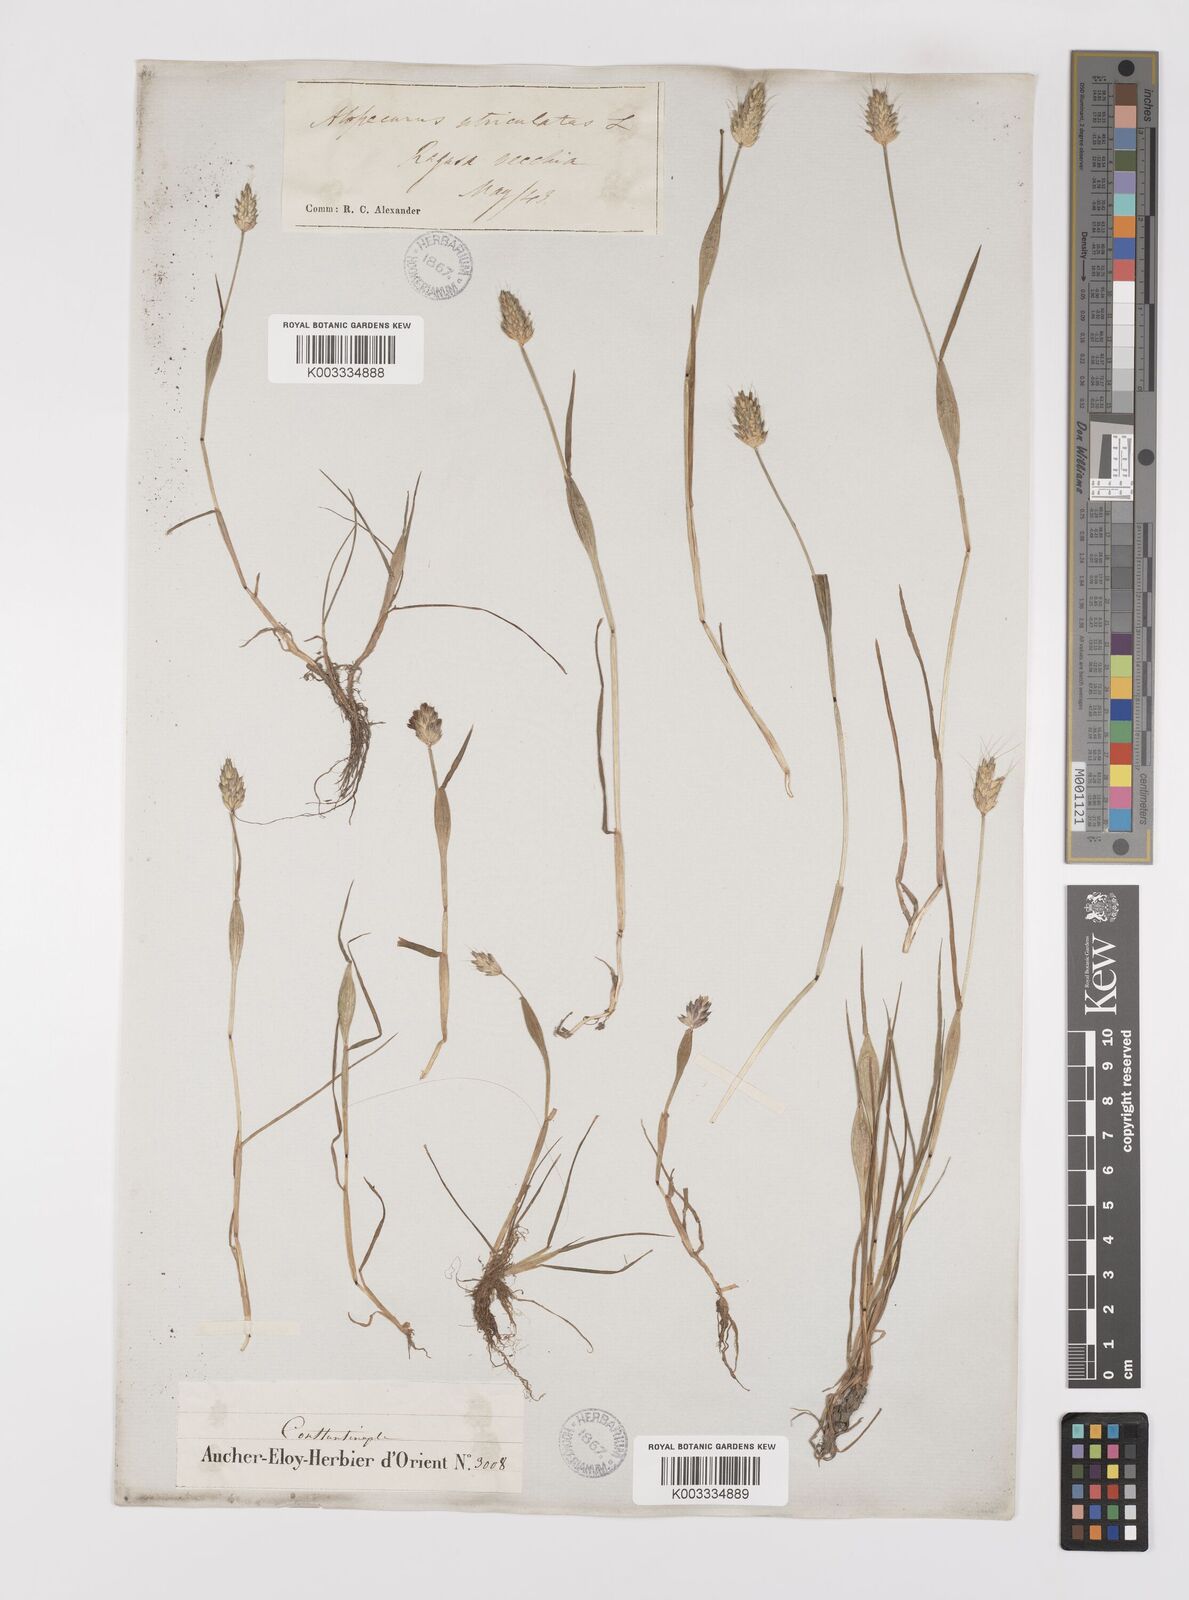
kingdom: Plantae
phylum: Tracheophyta
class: Liliopsida
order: Poales
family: Poaceae
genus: Alopecurus
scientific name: Alopecurus rendlei
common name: Rendle's meadow foxtail
